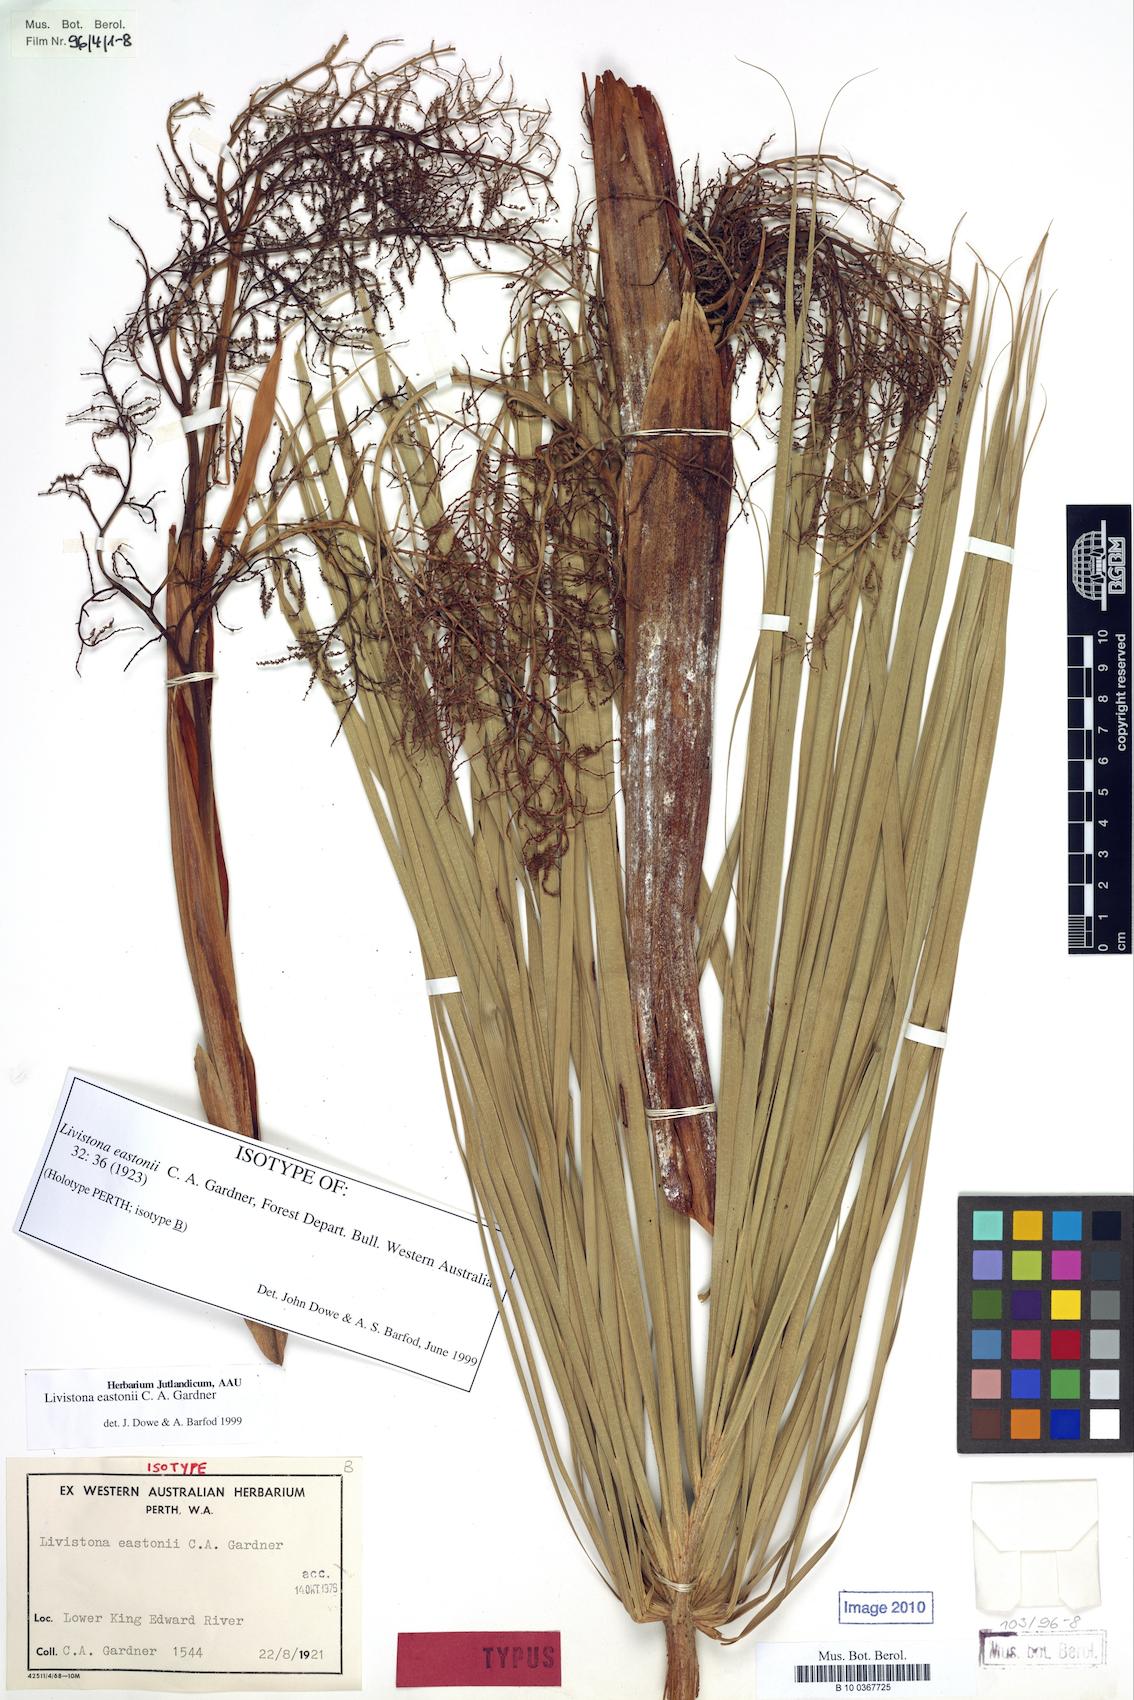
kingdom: Plantae
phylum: Tracheophyta
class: Liliopsida
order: Arecales
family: Arecaceae
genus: Livistona
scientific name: Livistona eastonii
